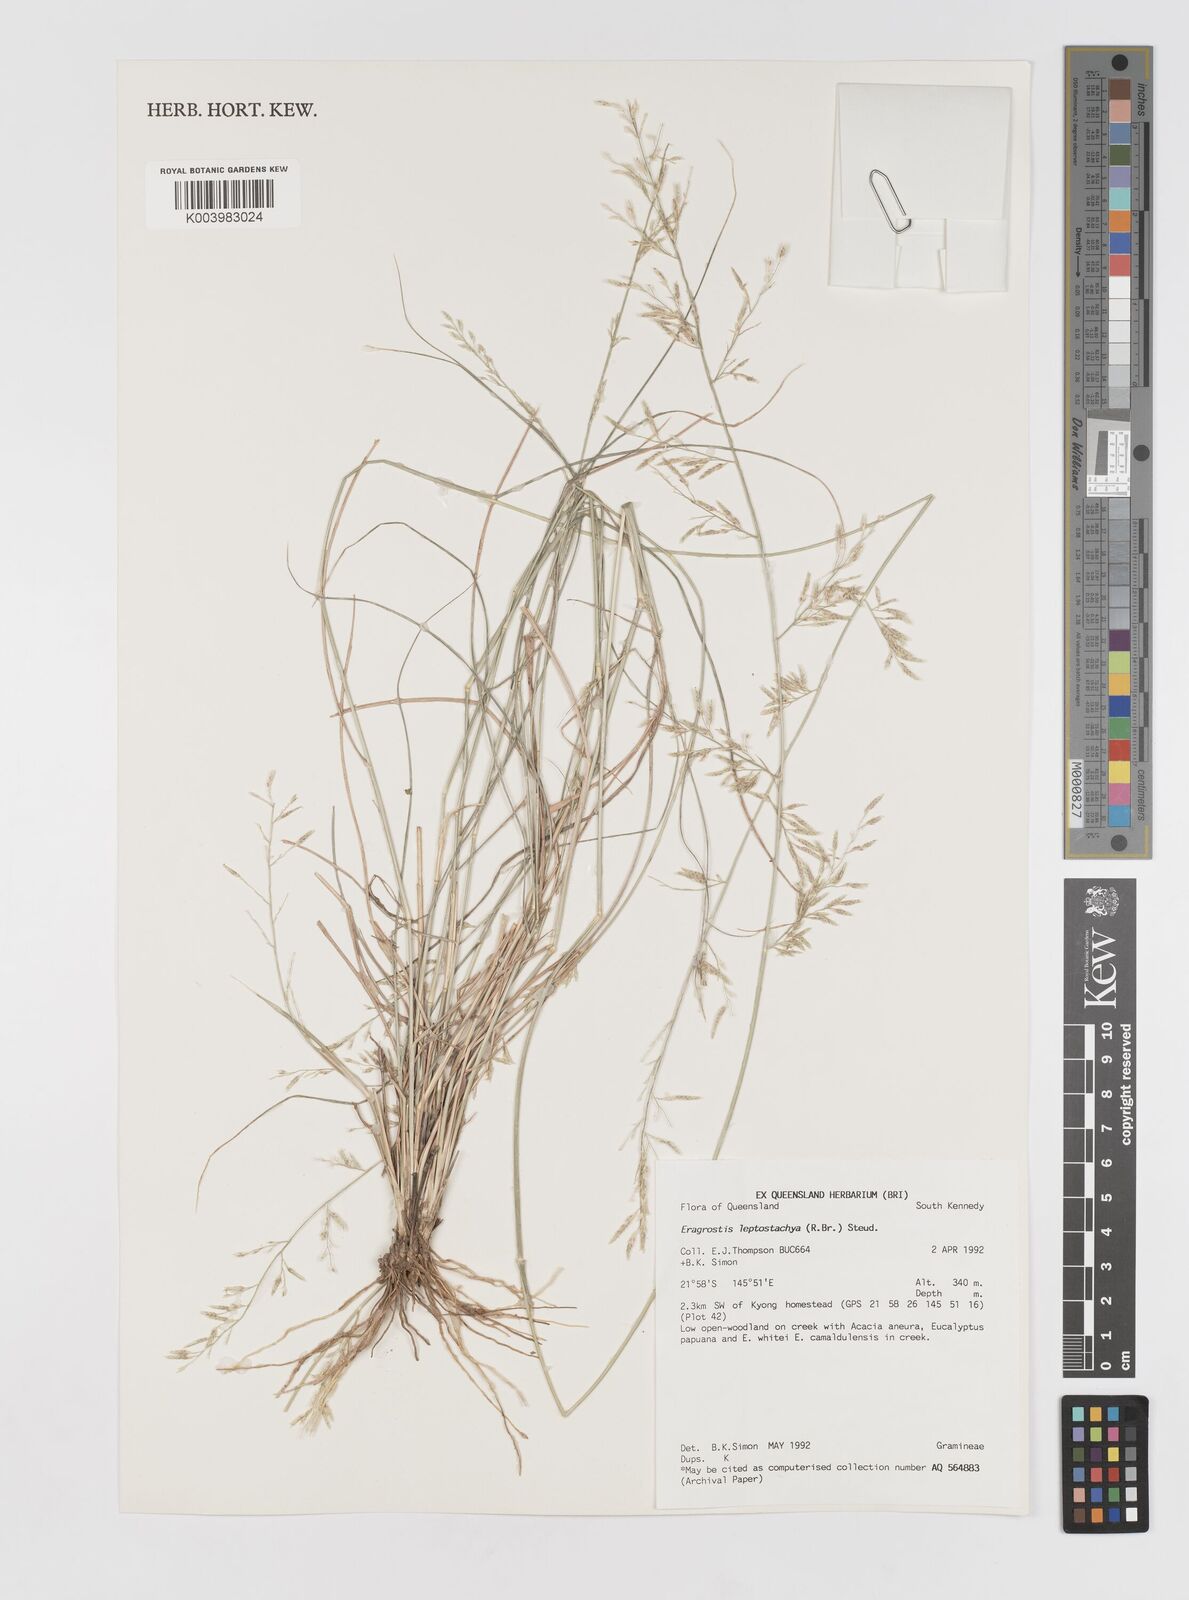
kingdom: Plantae
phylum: Tracheophyta
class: Liliopsida
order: Poales
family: Poaceae
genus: Eragrostis
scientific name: Eragrostis leptostachya
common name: Australian lovegrass
